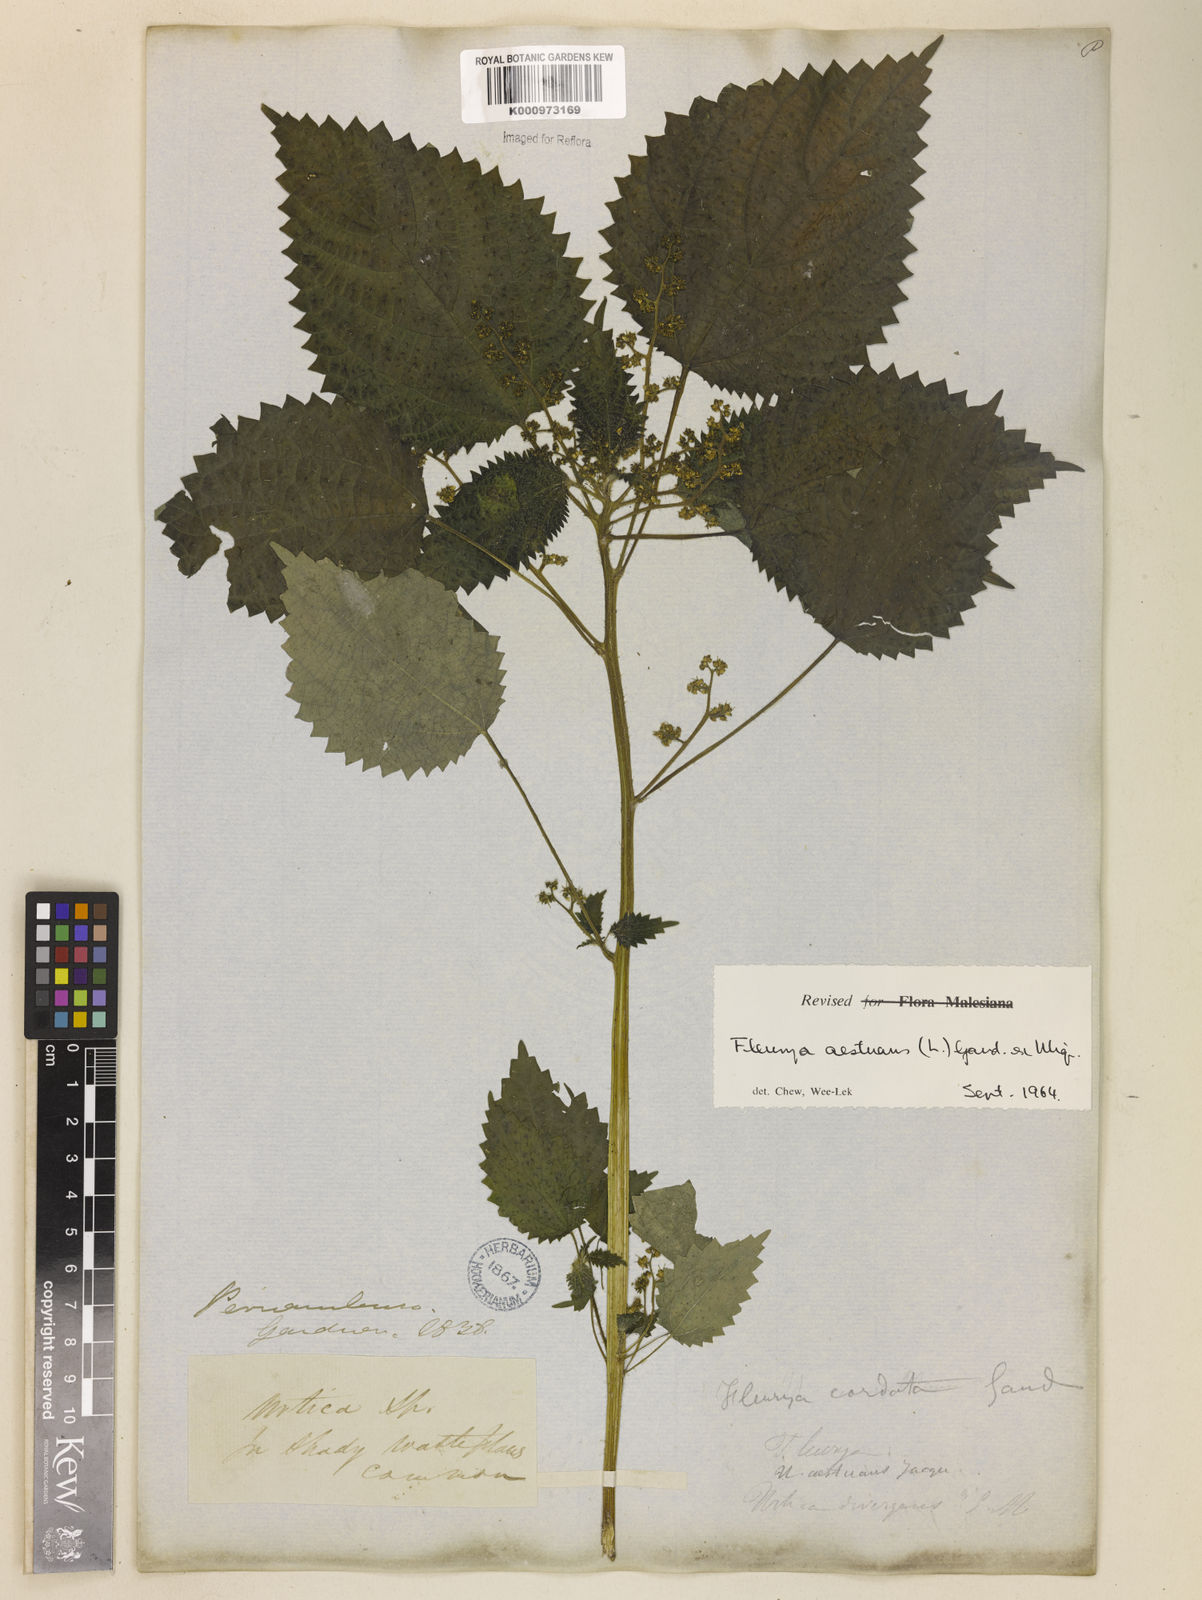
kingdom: Plantae
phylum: Tracheophyta
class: Magnoliopsida
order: Rosales
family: Urticaceae
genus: Laportea
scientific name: Laportea aestuans
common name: West indian woodnettle
